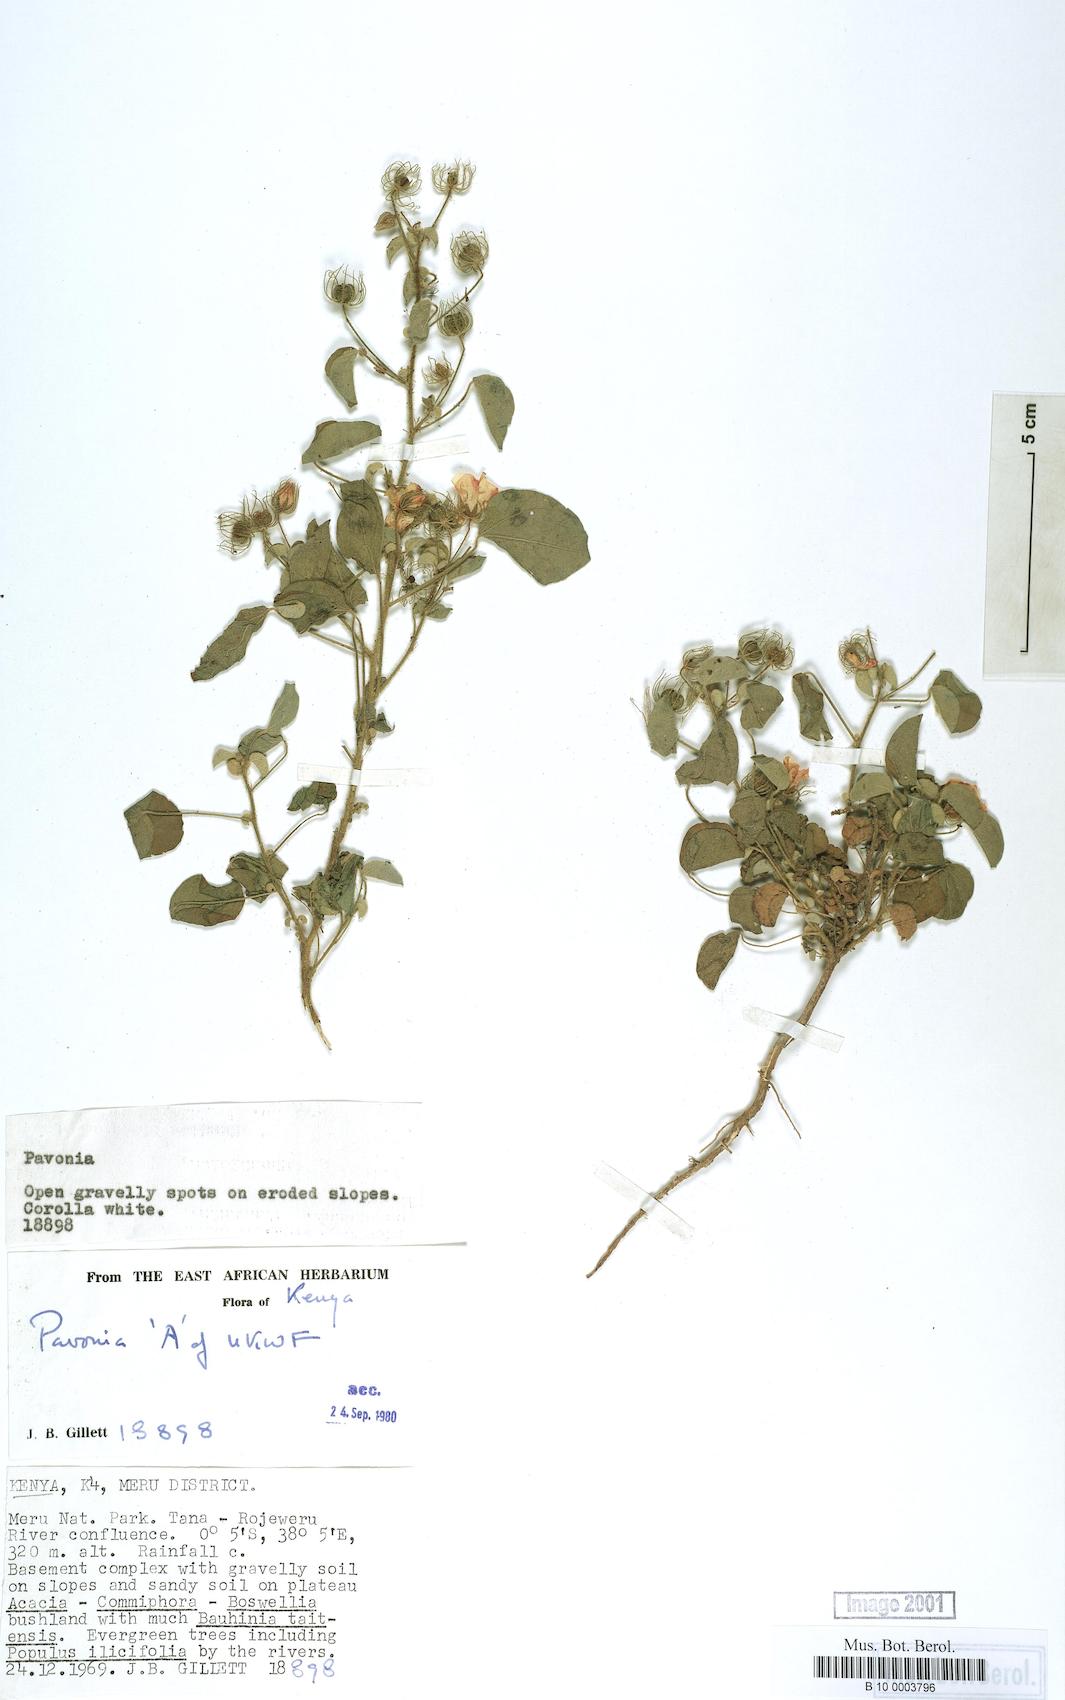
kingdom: Plantae
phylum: Tracheophyta
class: Magnoliopsida
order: Malvales
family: Malvaceae
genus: Pavonia
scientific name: Pavonia
